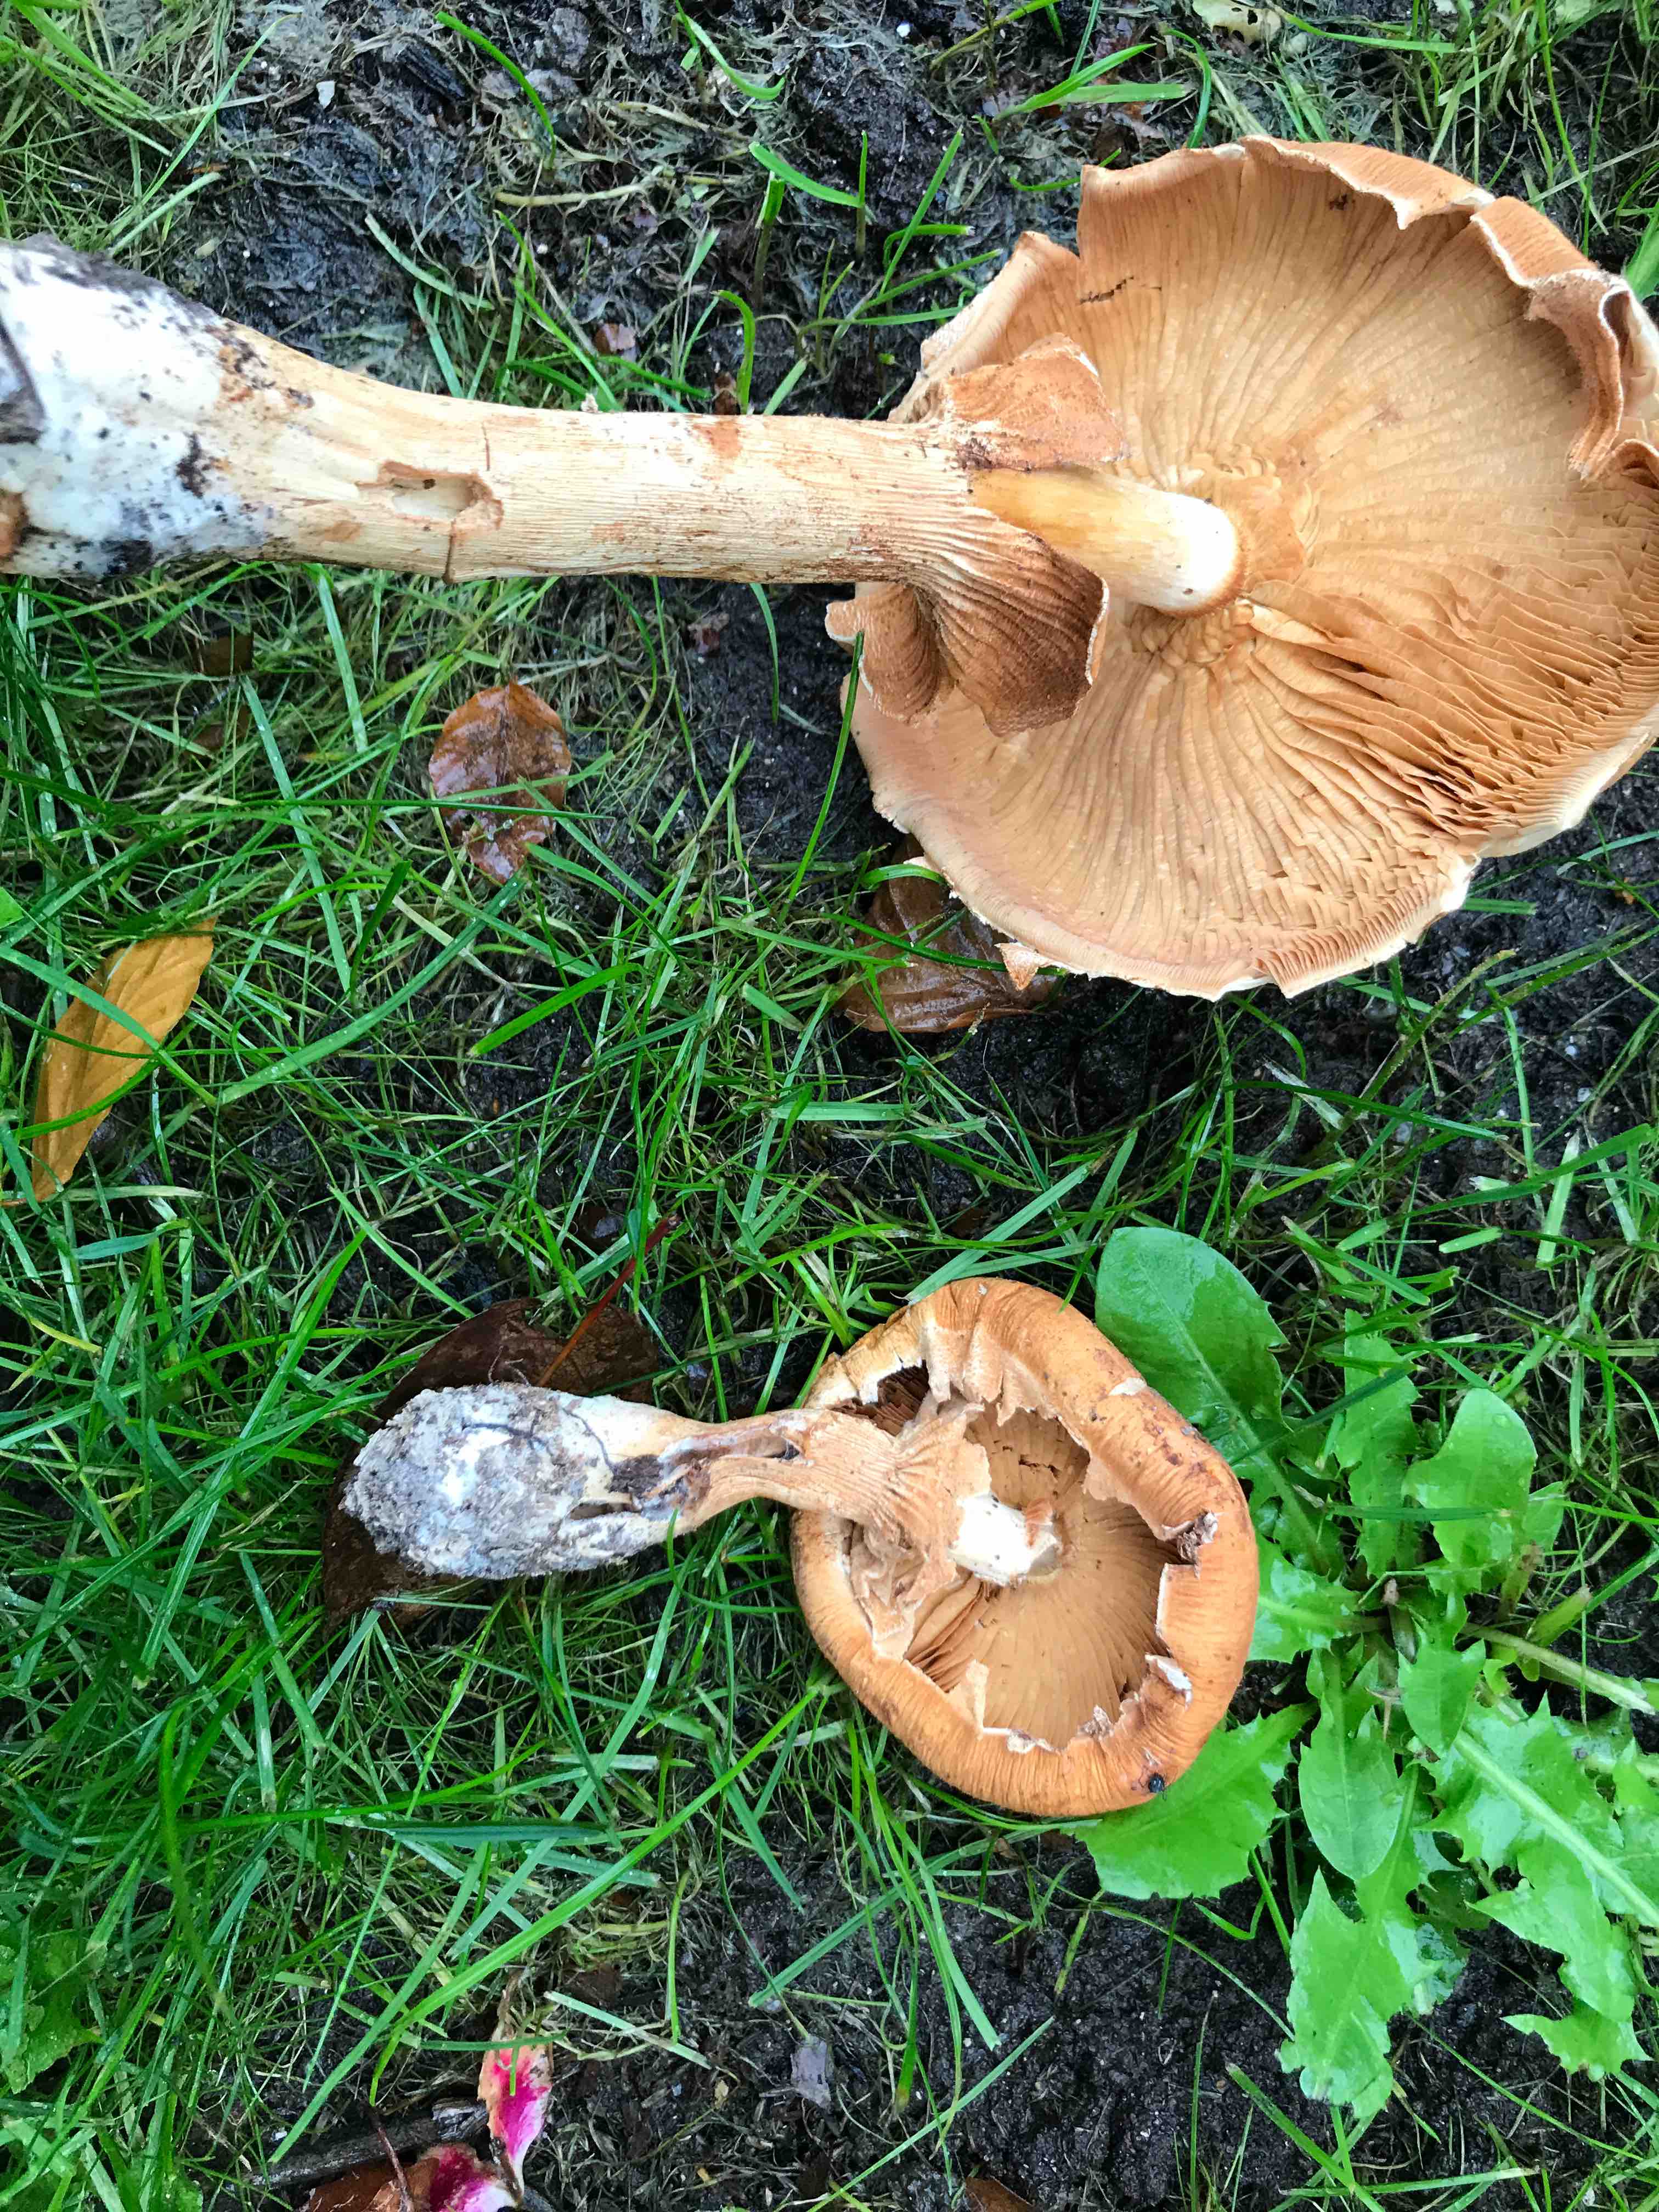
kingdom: Fungi
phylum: Basidiomycota
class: Agaricomycetes
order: Agaricales
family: Tricholomataceae
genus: Phaeolepiota
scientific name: Phaeolepiota aurea
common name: gyldenhat
